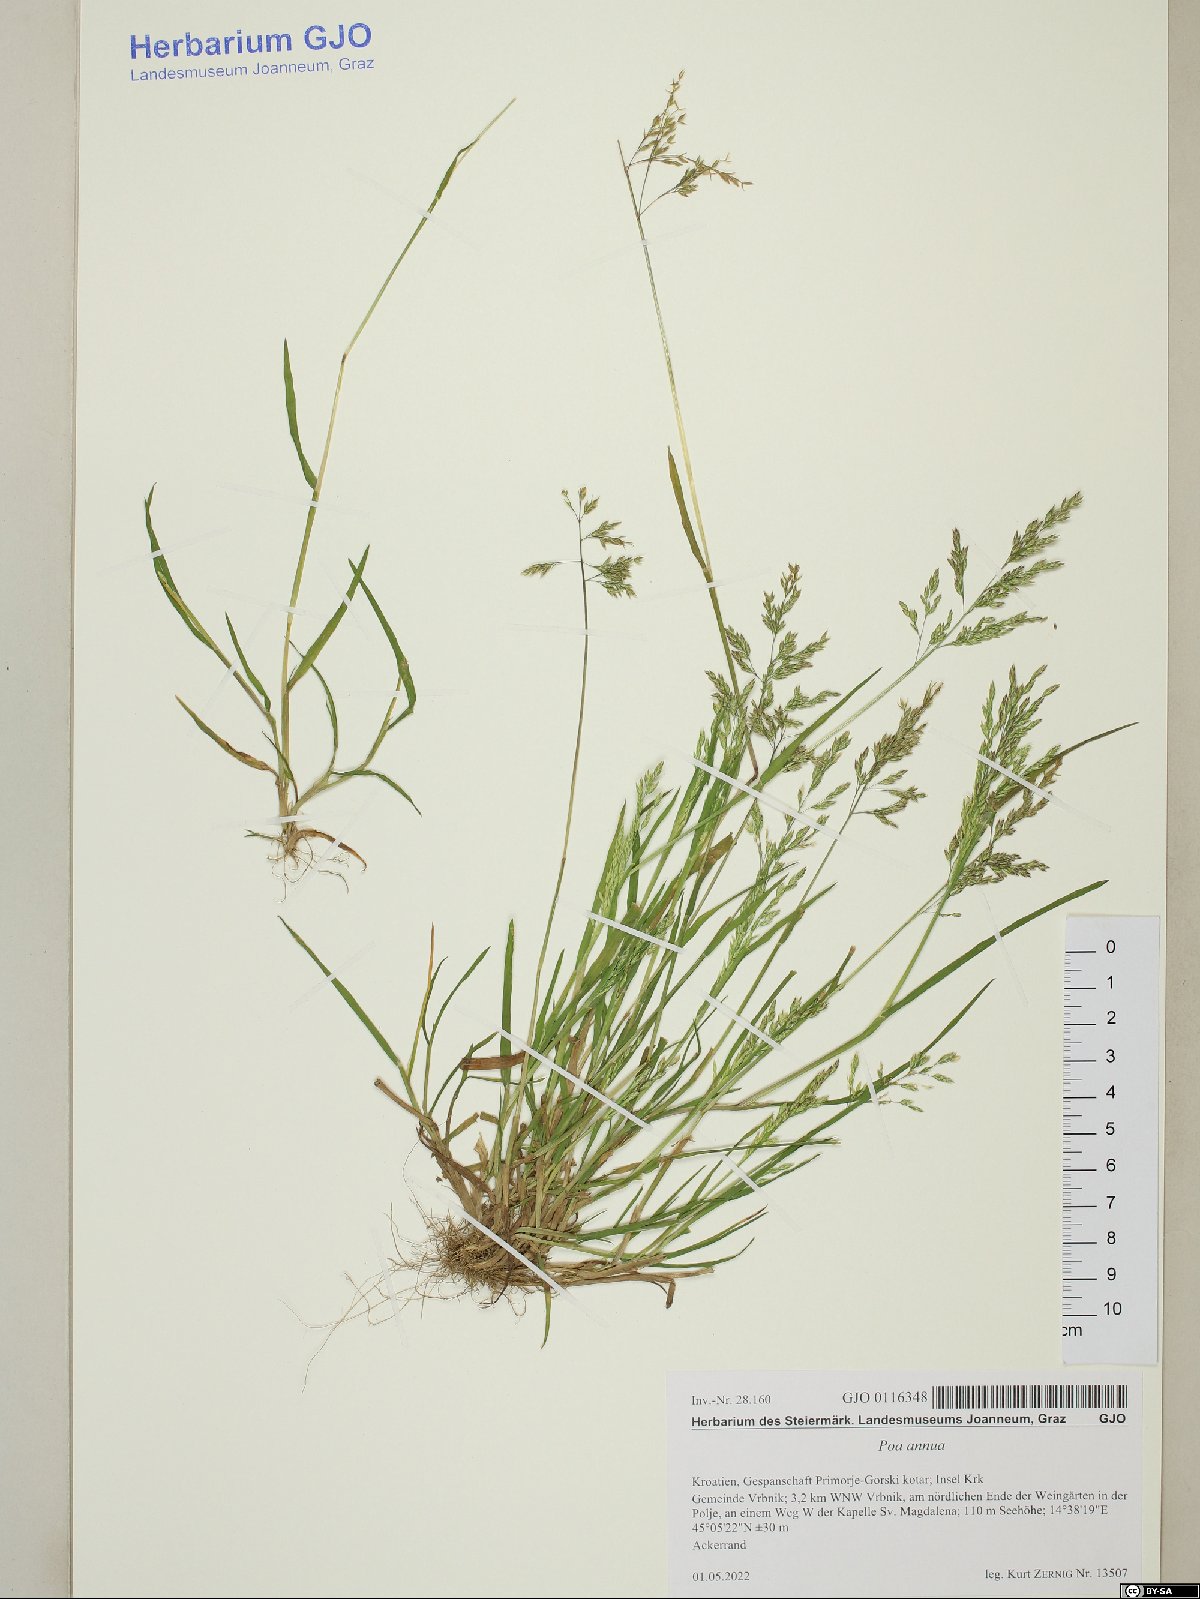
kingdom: Plantae
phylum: Tracheophyta
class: Liliopsida
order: Poales
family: Poaceae
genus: Poa
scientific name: Poa annua
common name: Annual bluegrass
